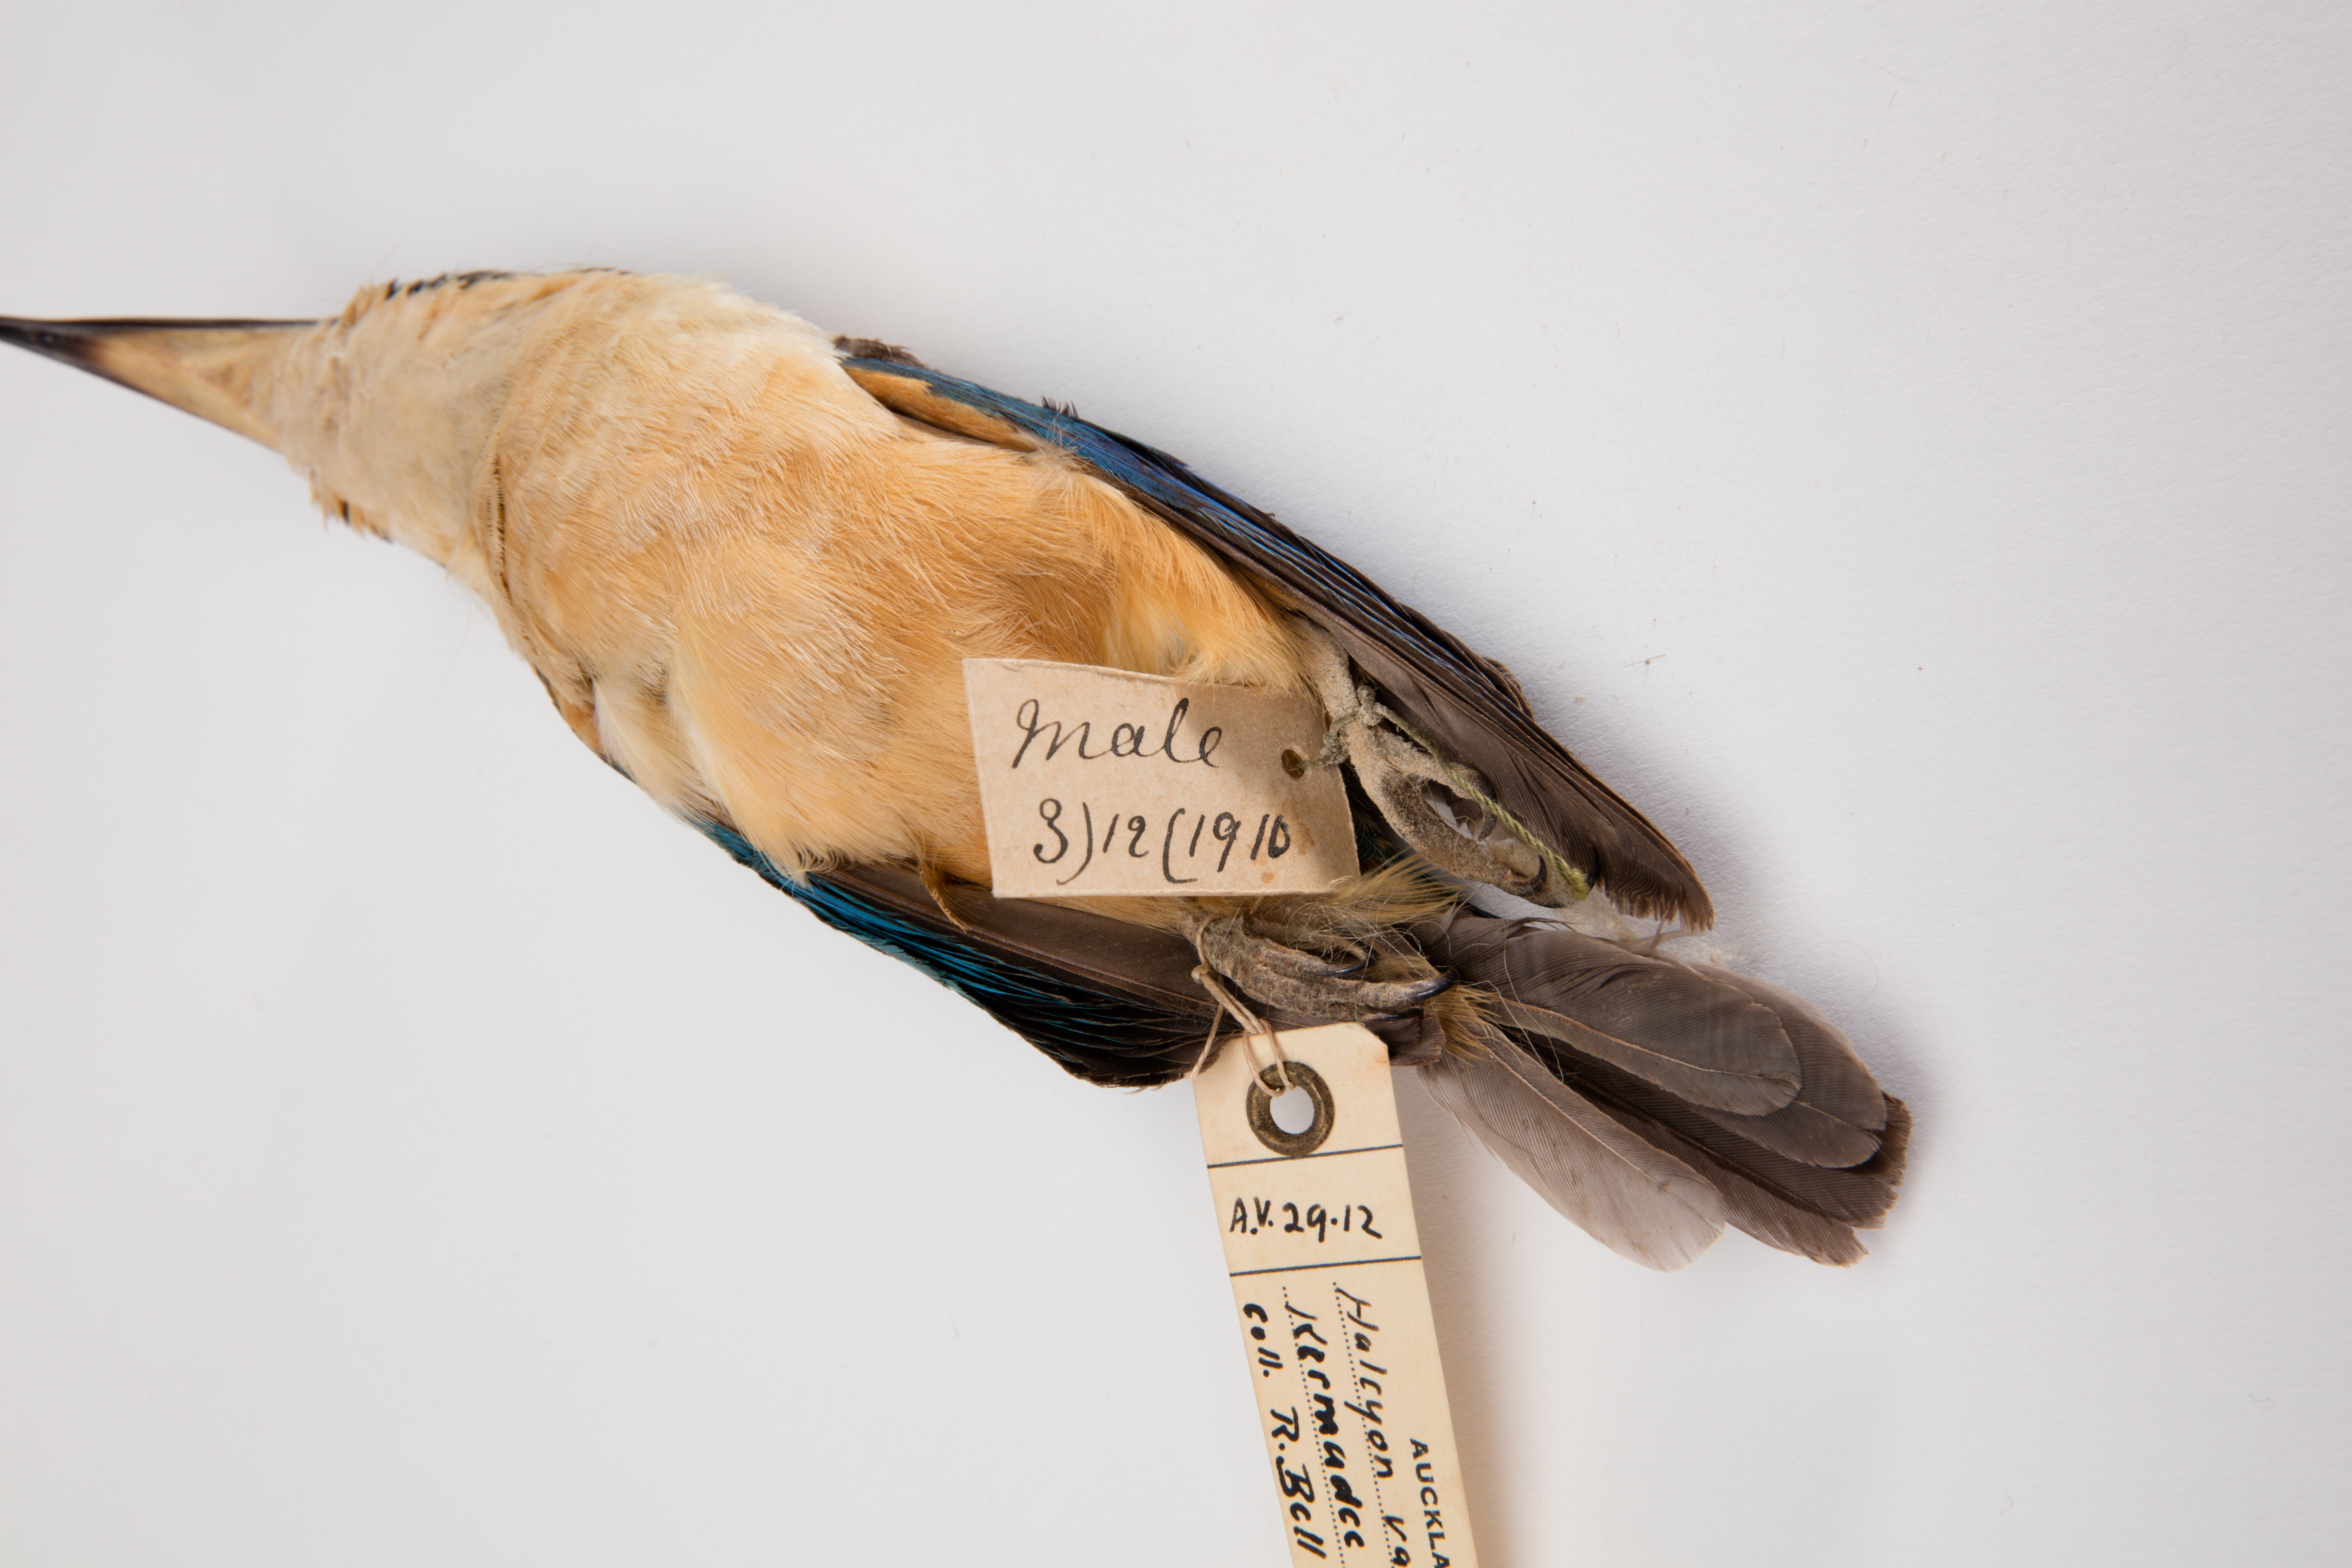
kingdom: Animalia
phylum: Chordata
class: Aves
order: Coraciiformes
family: Alcedinidae
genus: Todiramphus
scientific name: Todiramphus sanctus
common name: Sacred kingfisher
